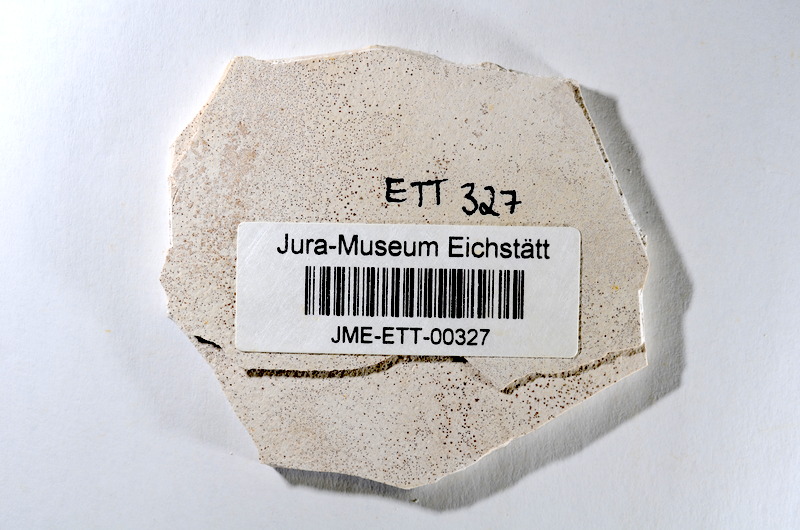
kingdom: Animalia
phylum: Chordata
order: Salmoniformes
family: Orthogonikleithridae
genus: Orthogonikleithrus
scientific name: Orthogonikleithrus hoelli
